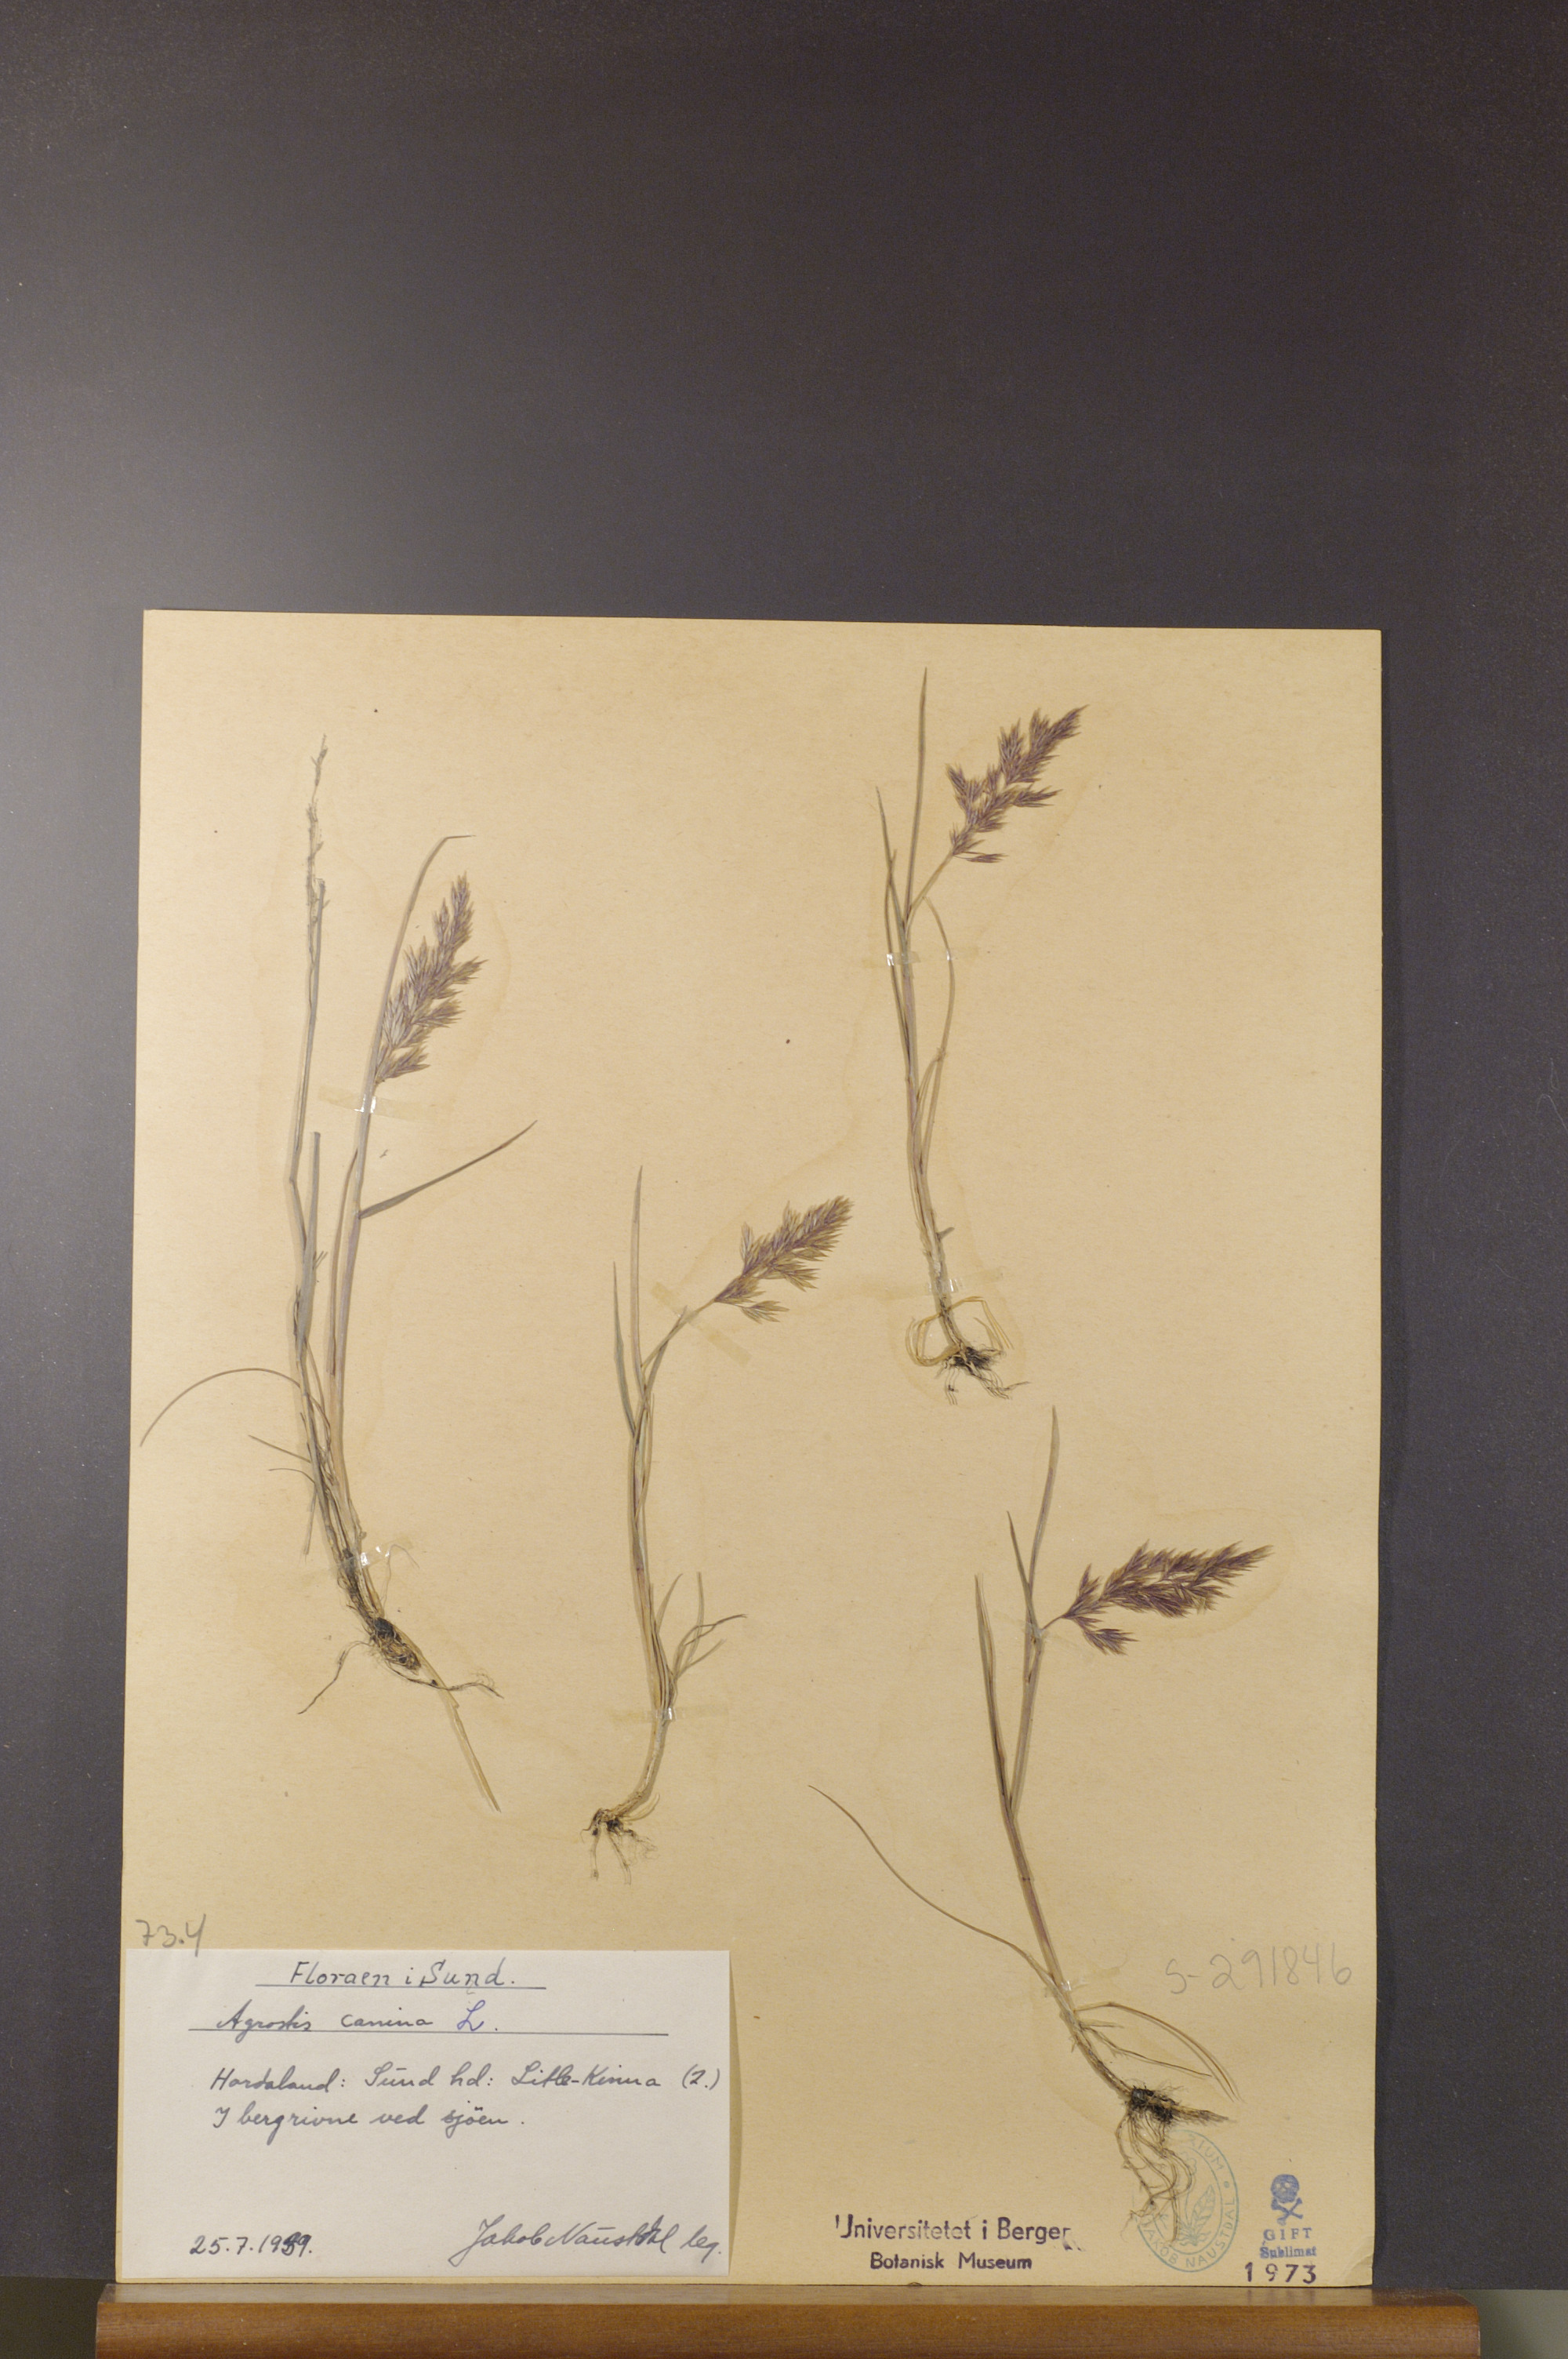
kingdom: Plantae
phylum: Tracheophyta
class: Liliopsida
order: Poales
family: Poaceae
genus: Agrostis
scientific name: Agrostis canina
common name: Velvet bent
